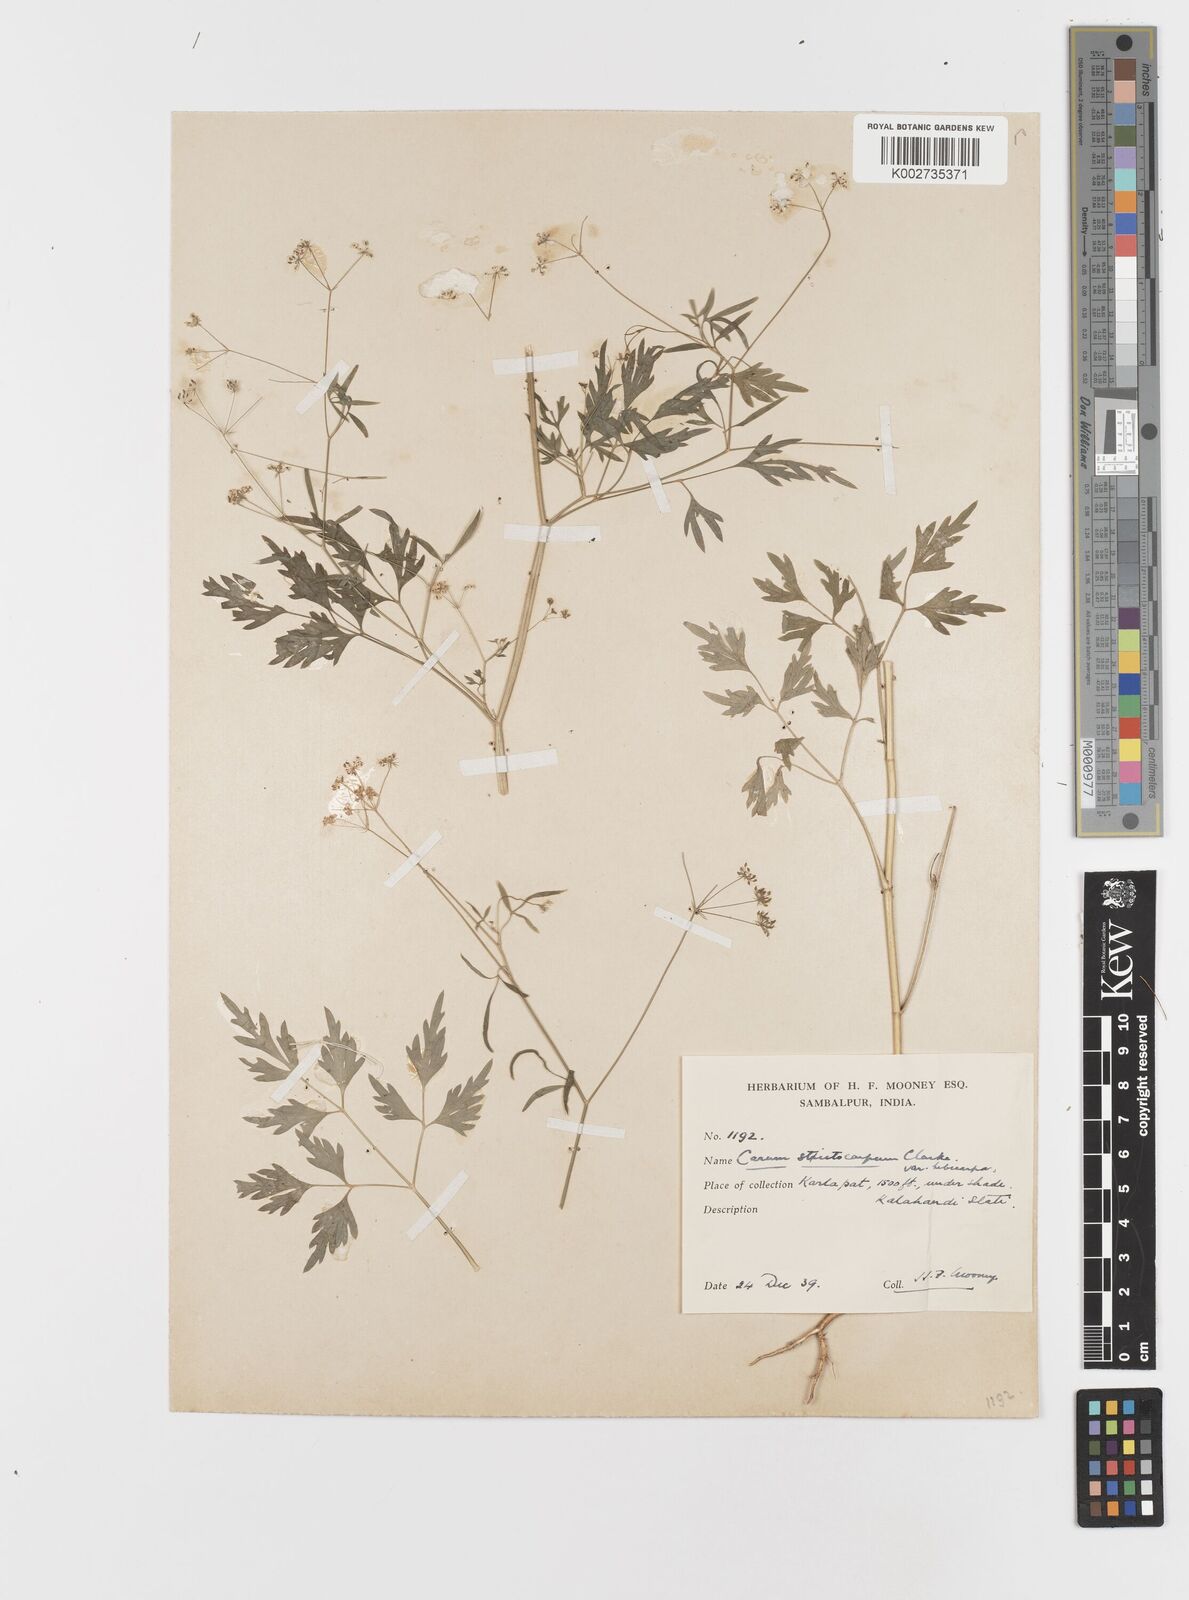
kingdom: Plantae
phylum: Tracheophyta
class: Magnoliopsida
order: Apiales
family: Apiaceae
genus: Psammogeton
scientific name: Psammogeton involucratum
